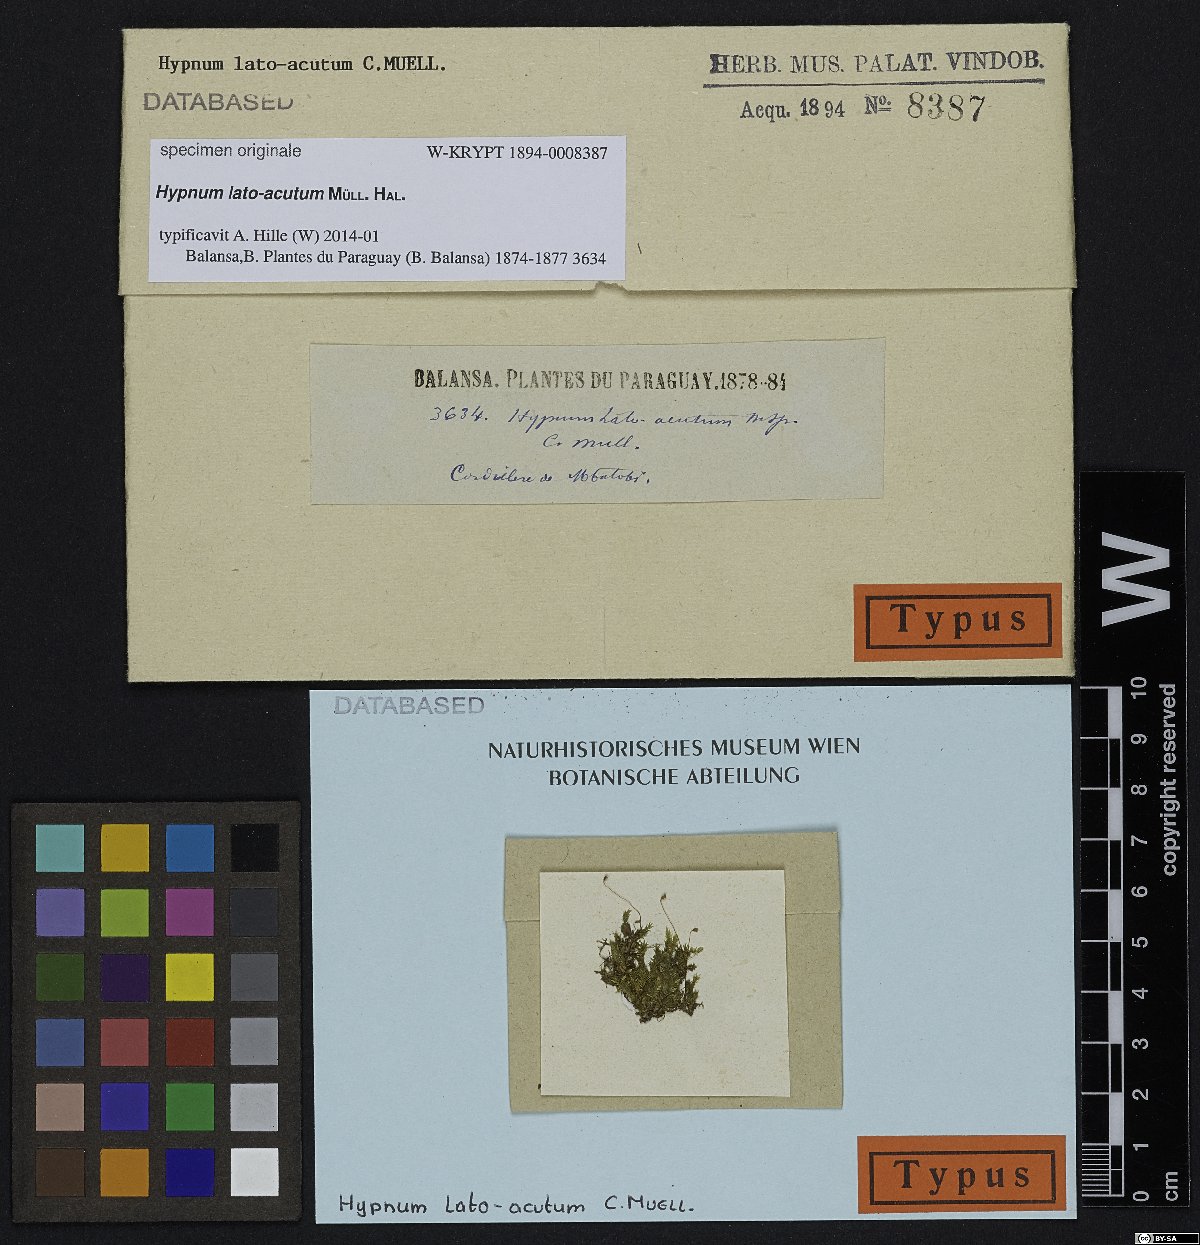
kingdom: Plantae
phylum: Bryophyta
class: Bryopsida
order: Hypnales
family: Hypnaceae
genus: Hypnum
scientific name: Hypnum
